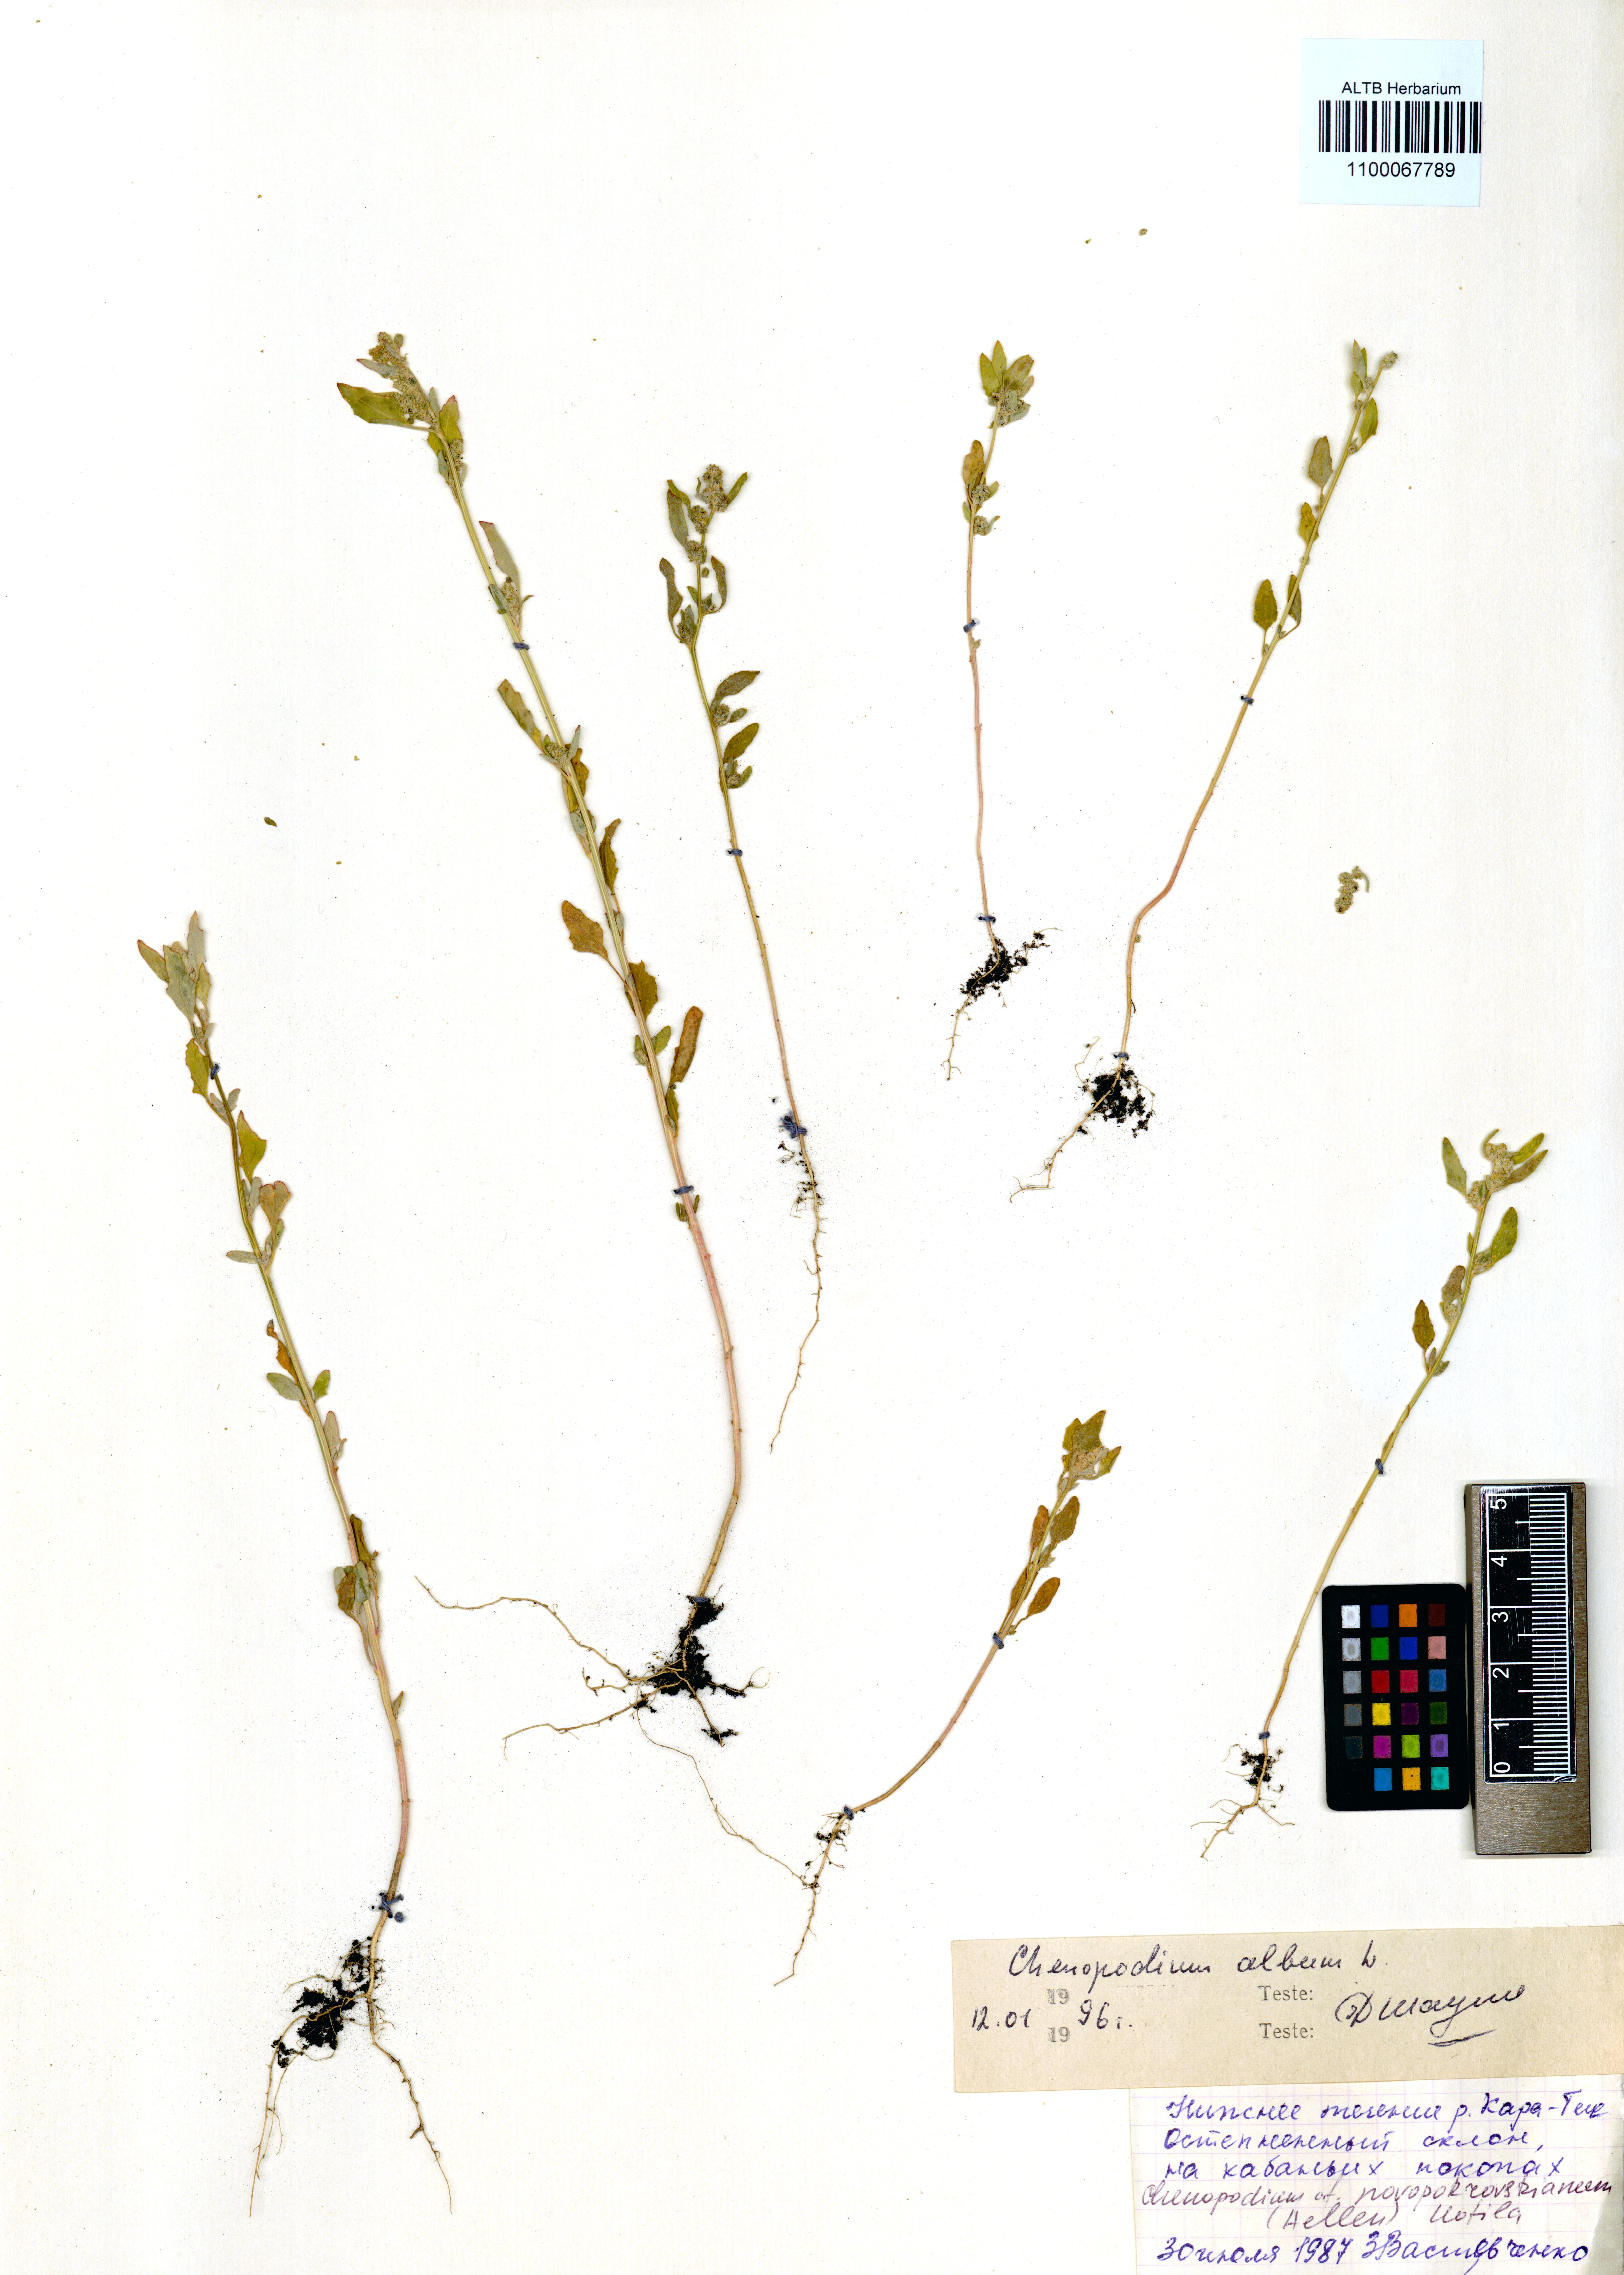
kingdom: Plantae
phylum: Tracheophyta
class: Magnoliopsida
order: Caryophyllales
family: Amaranthaceae
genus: Chenopodium
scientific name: Chenopodium album
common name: Fat-hen
